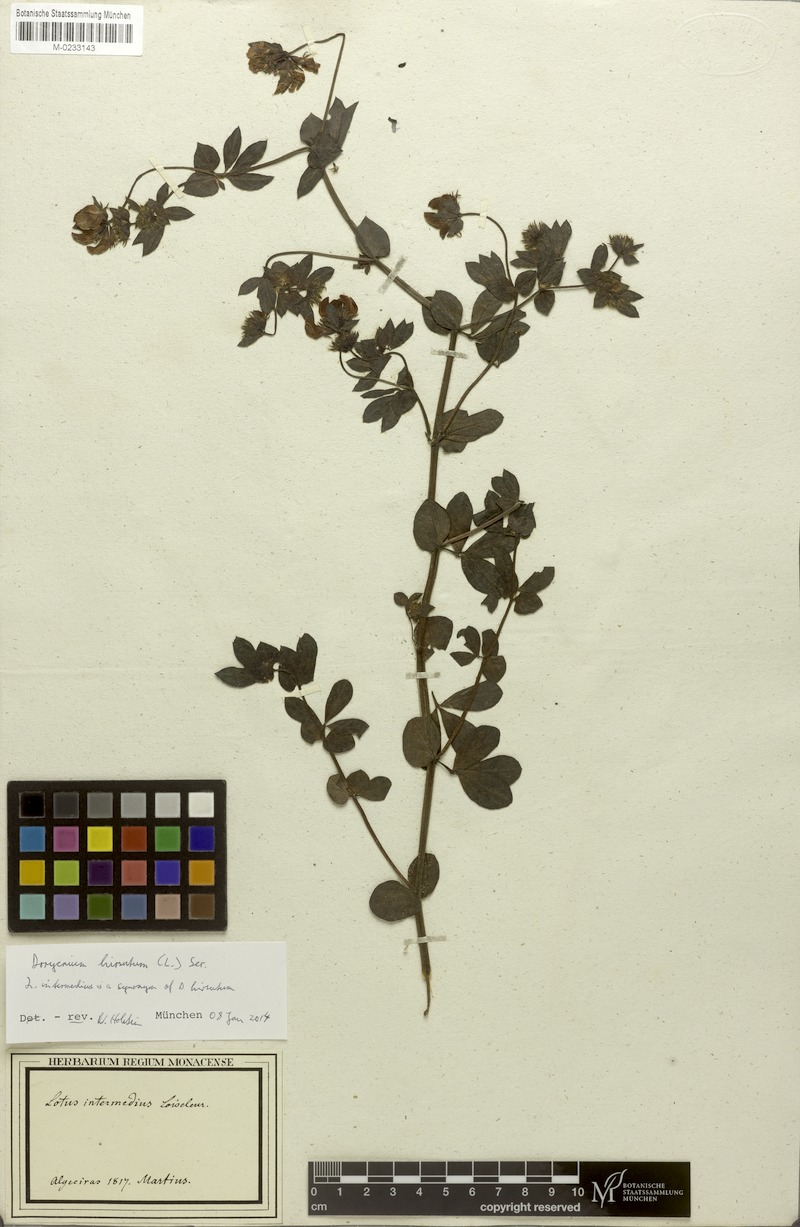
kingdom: Plantae
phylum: Tracheophyta
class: Magnoliopsida
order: Fabales
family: Fabaceae
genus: Lotus
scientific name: Lotus hirsutus
